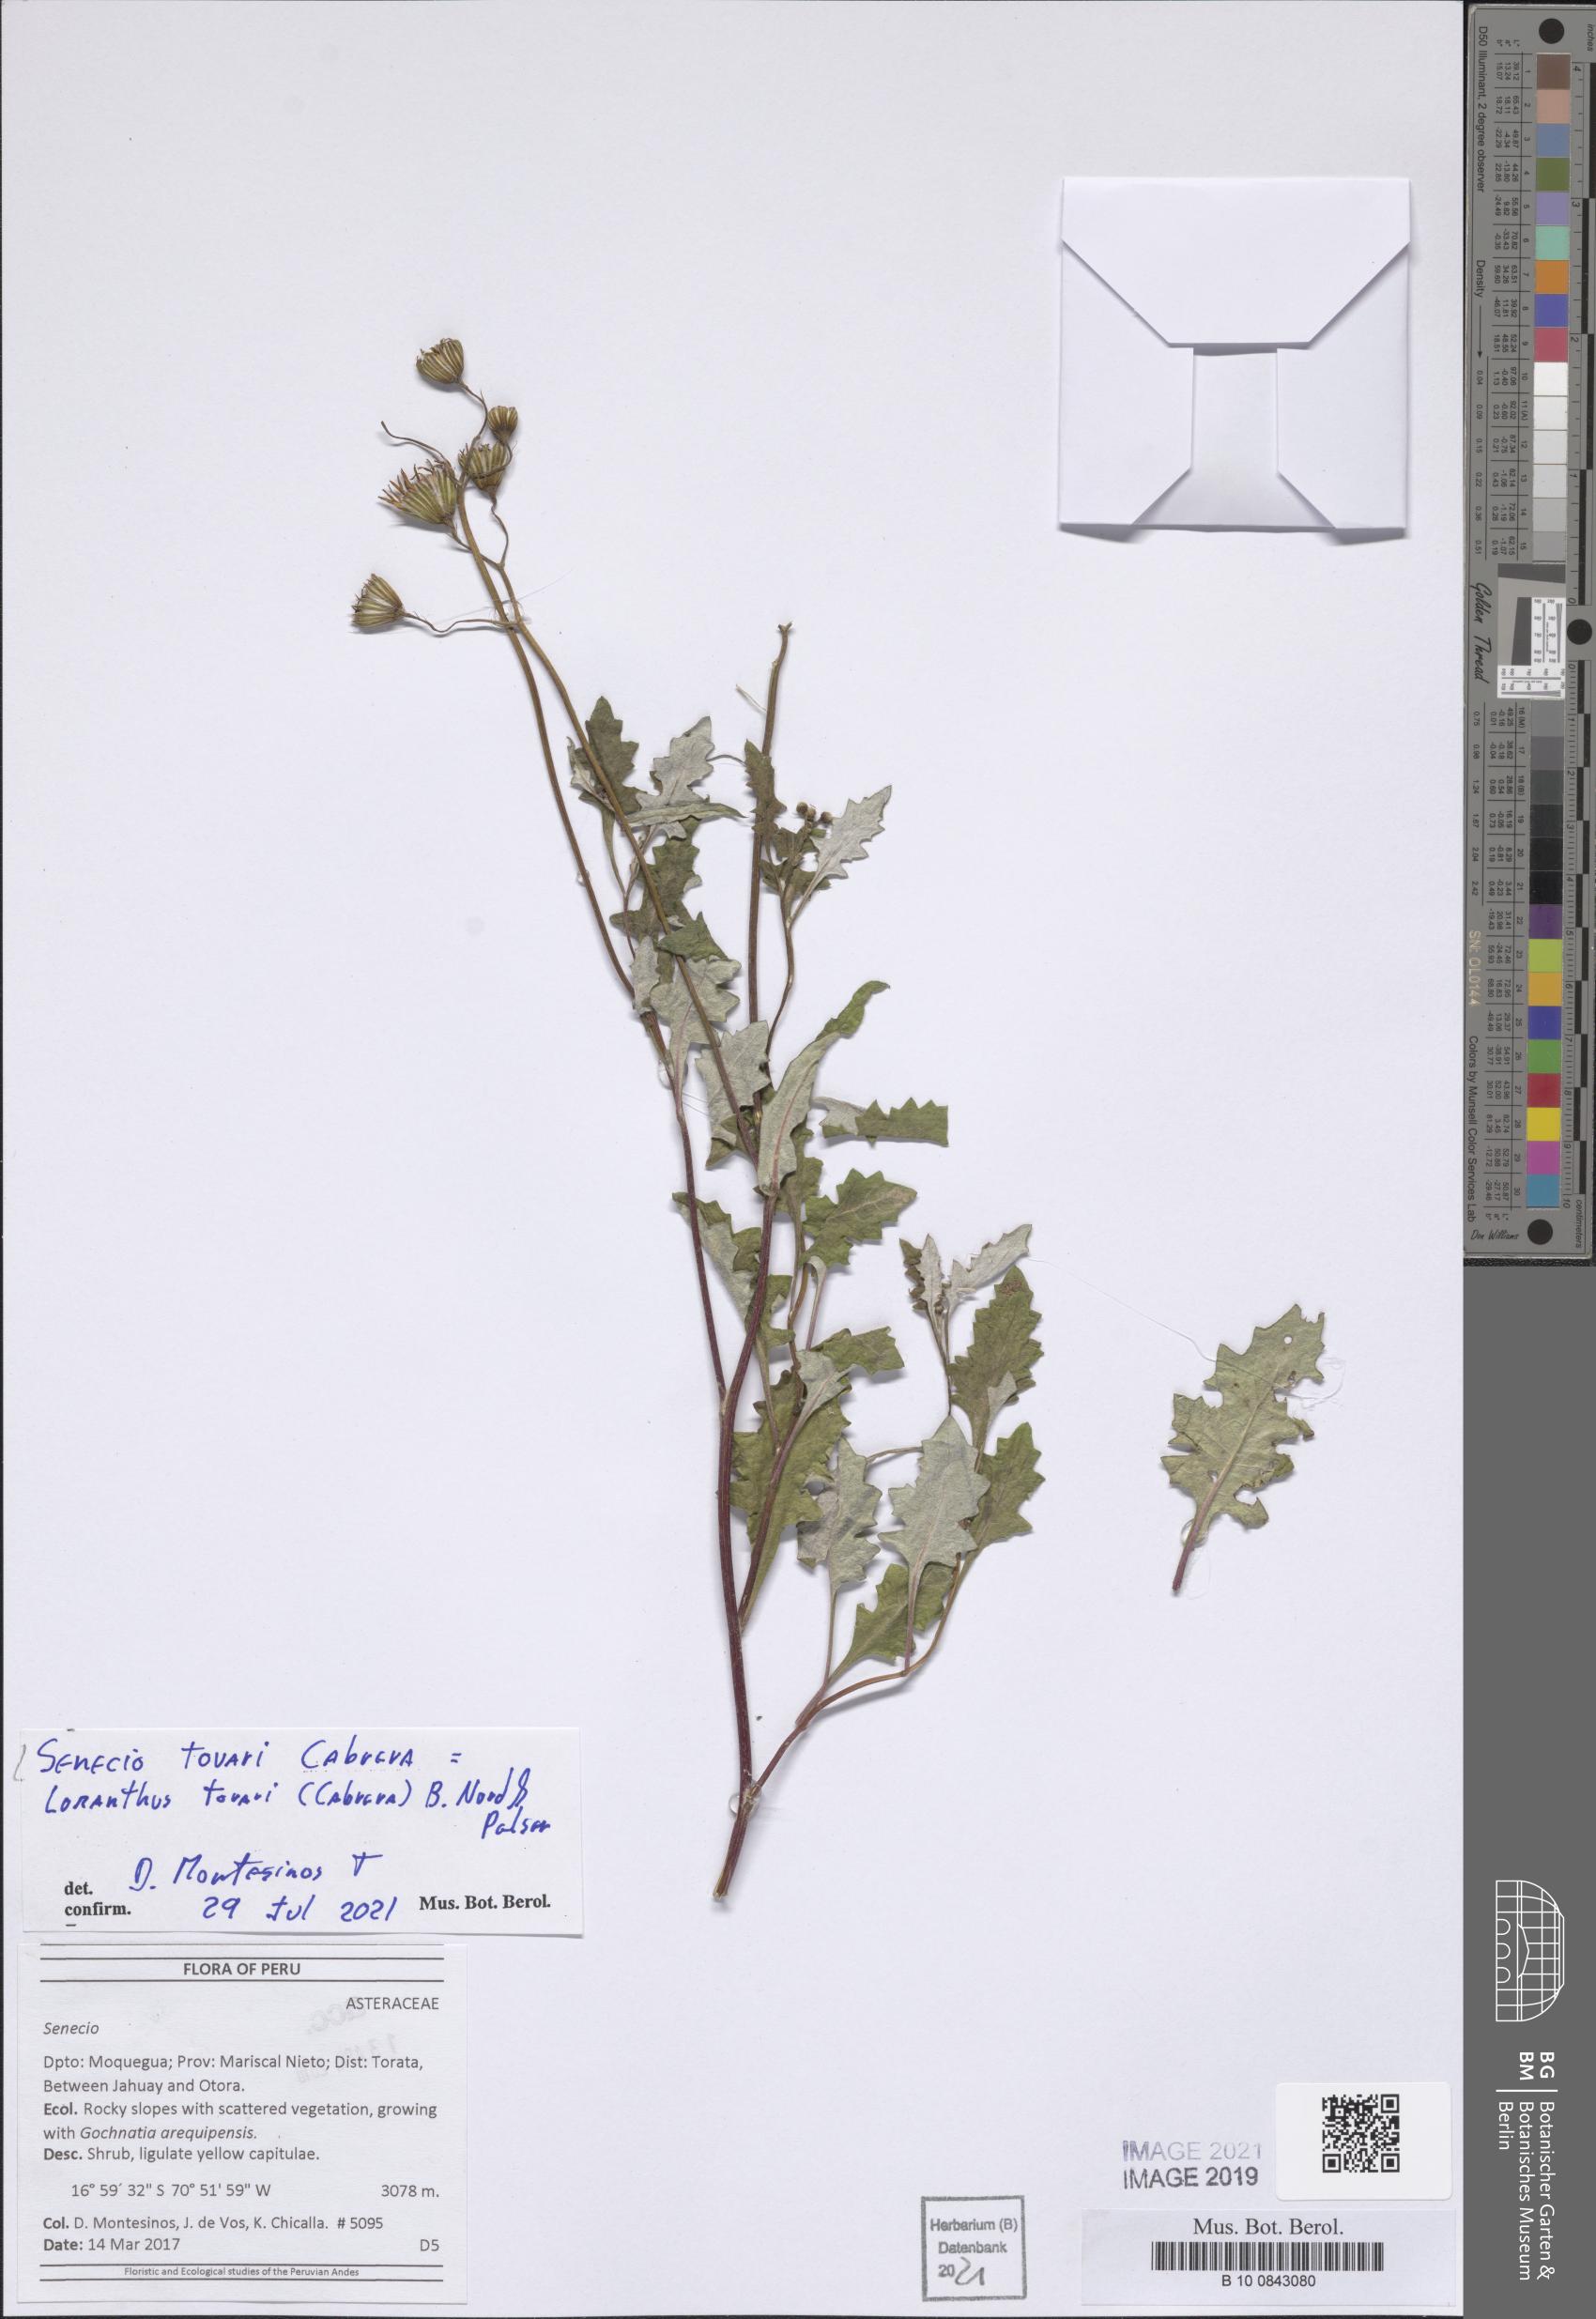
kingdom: Plantae
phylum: Tracheophyta
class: Magnoliopsida
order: Asterales
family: Asteraceae
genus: Lomanthus
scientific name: Lomanthus tovarii
